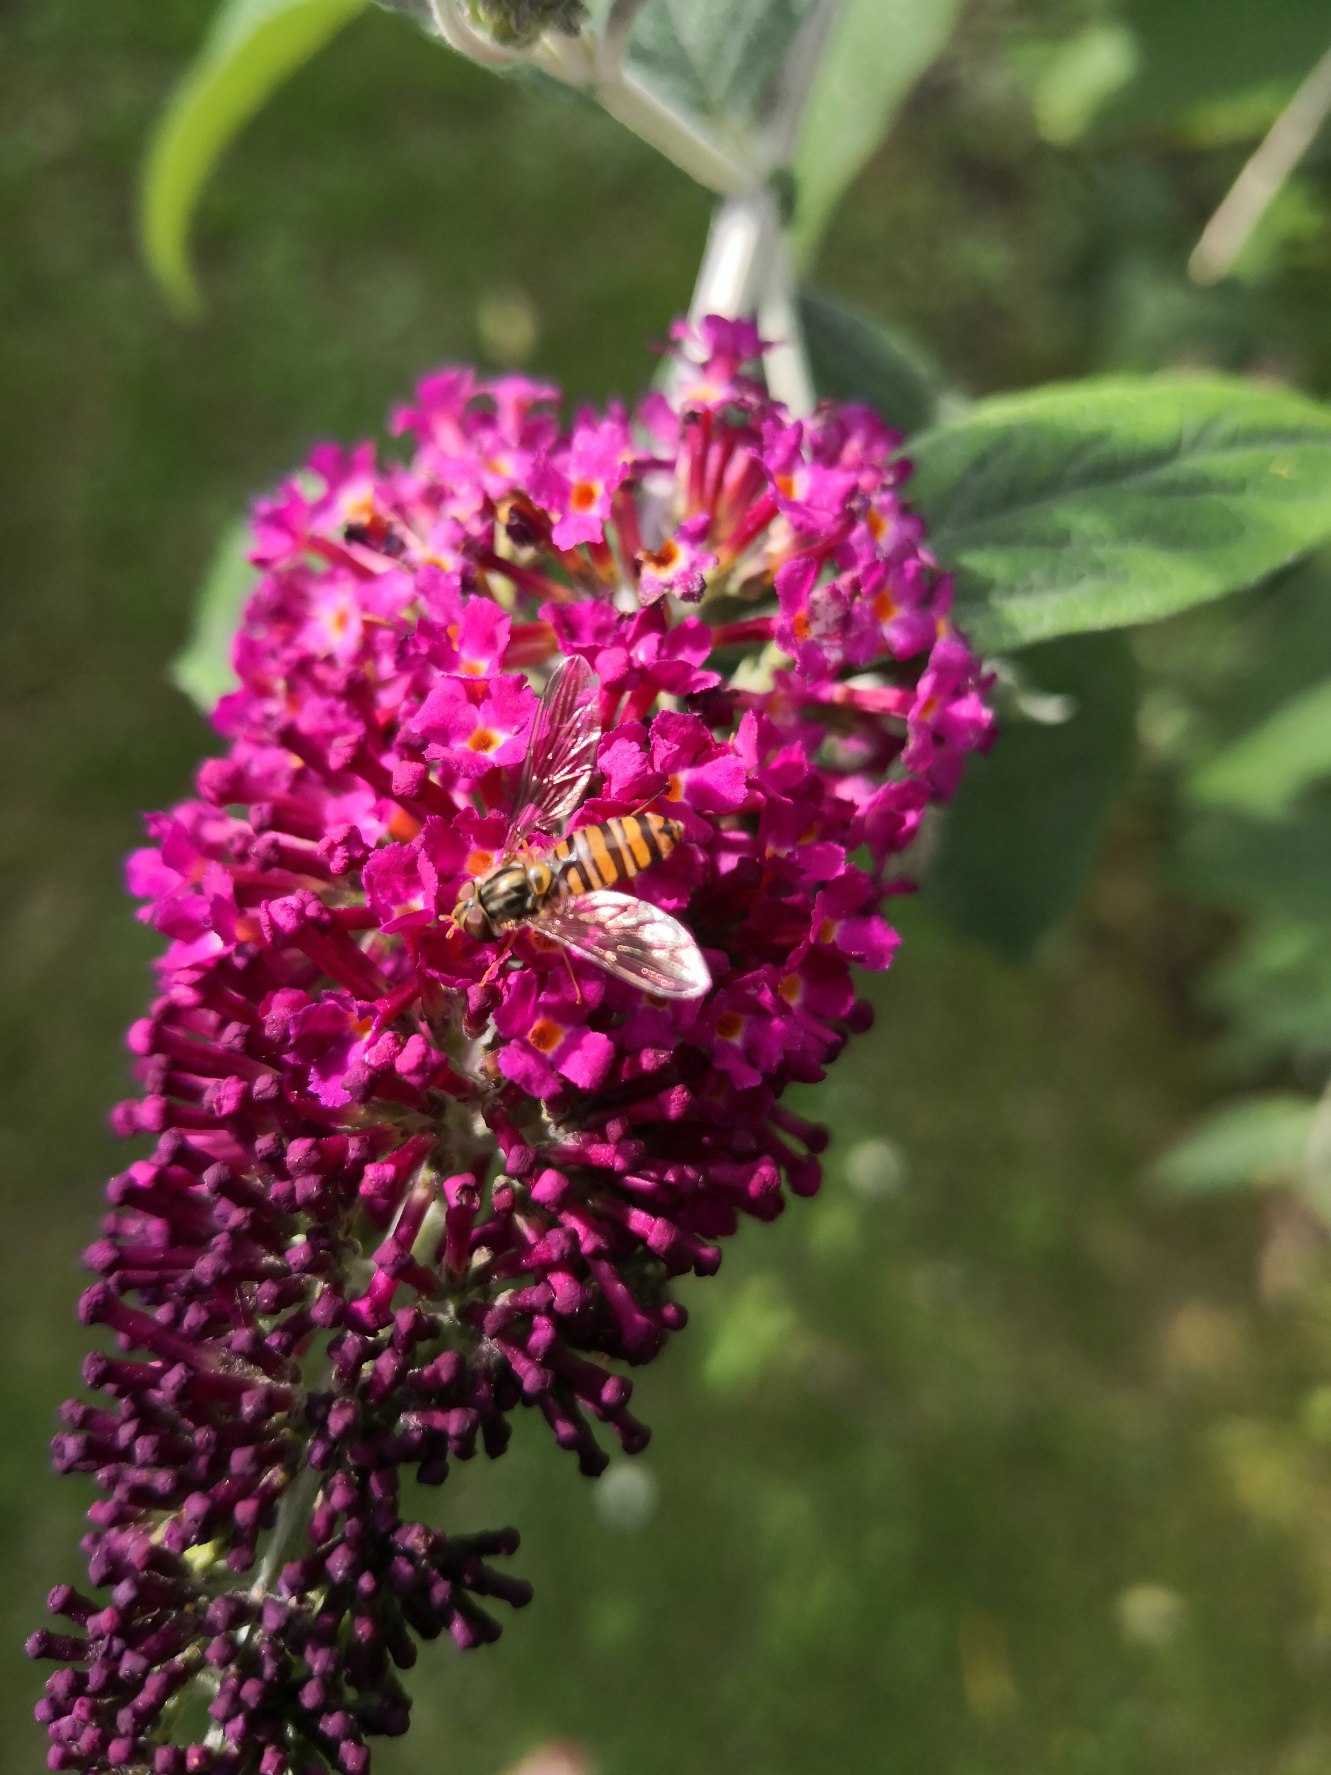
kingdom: Animalia
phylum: Arthropoda
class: Insecta
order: Diptera
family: Syrphidae
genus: Episyrphus
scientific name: Episyrphus balteatus
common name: Dobbeltbåndet svirreflue
